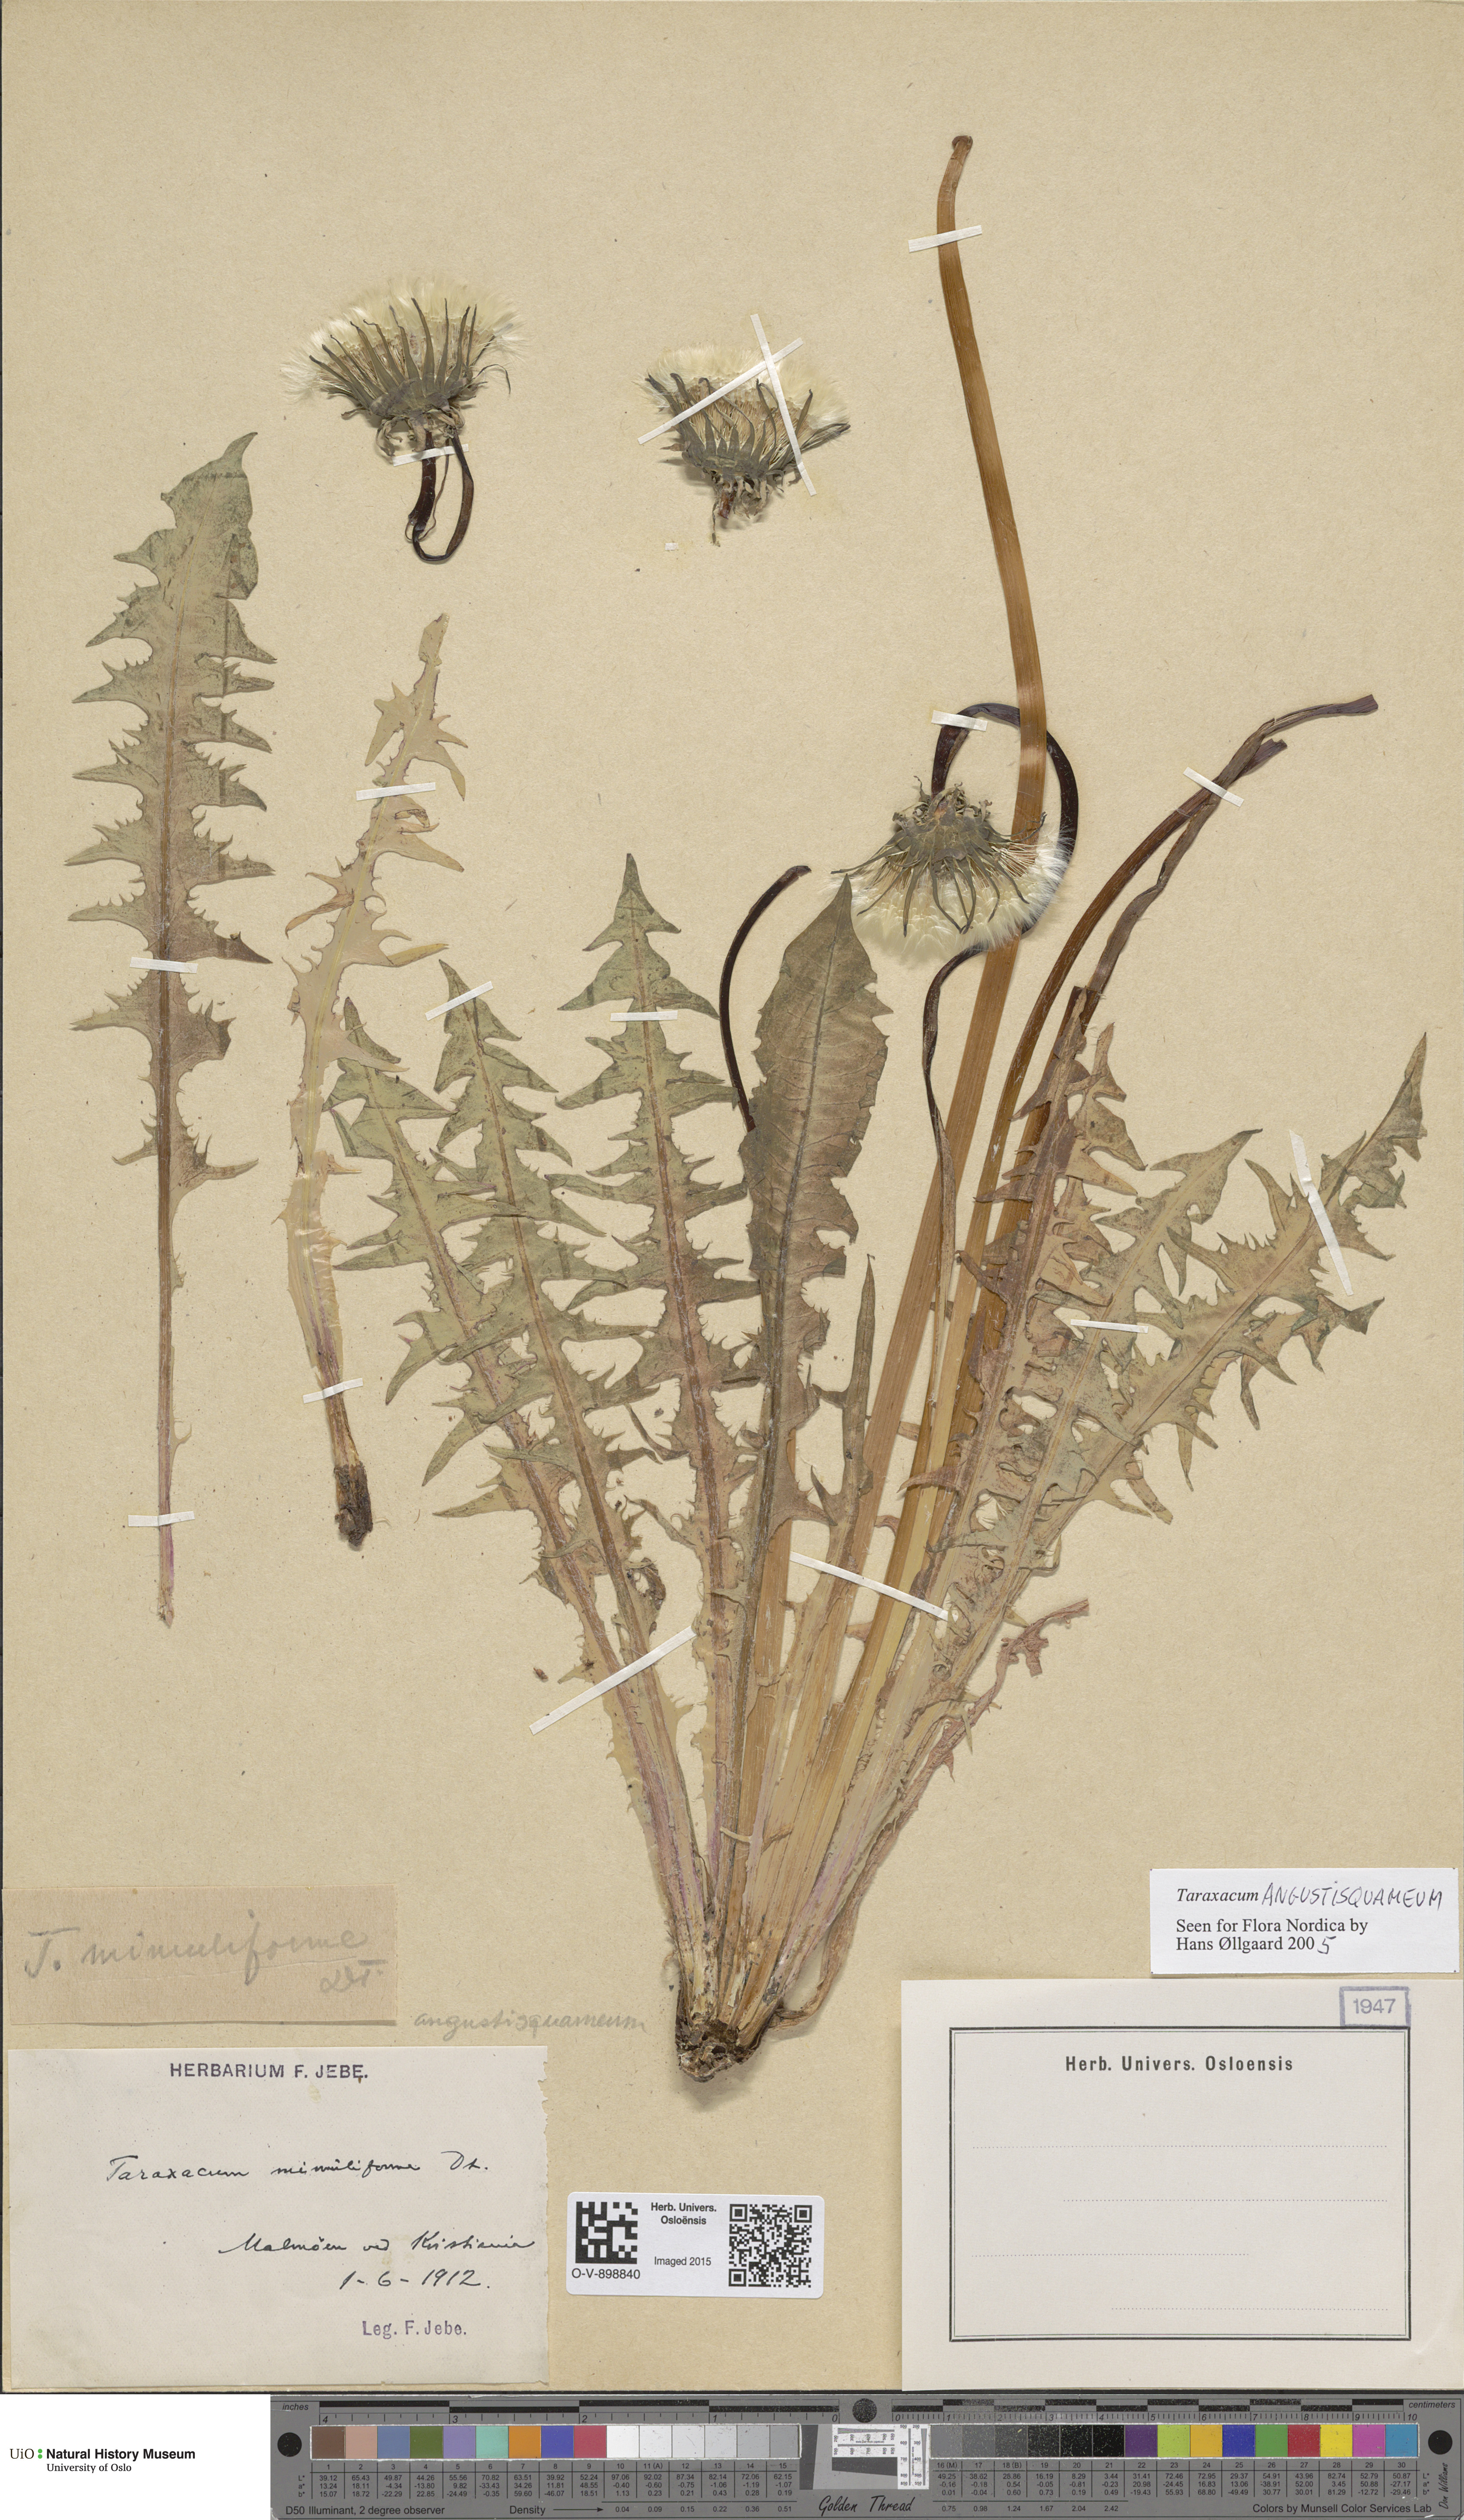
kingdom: Plantae
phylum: Tracheophyta
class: Magnoliopsida
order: Asterales
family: Asteraceae
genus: Taraxacum
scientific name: Taraxacum angustisquameum
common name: Multilobed dandelion
